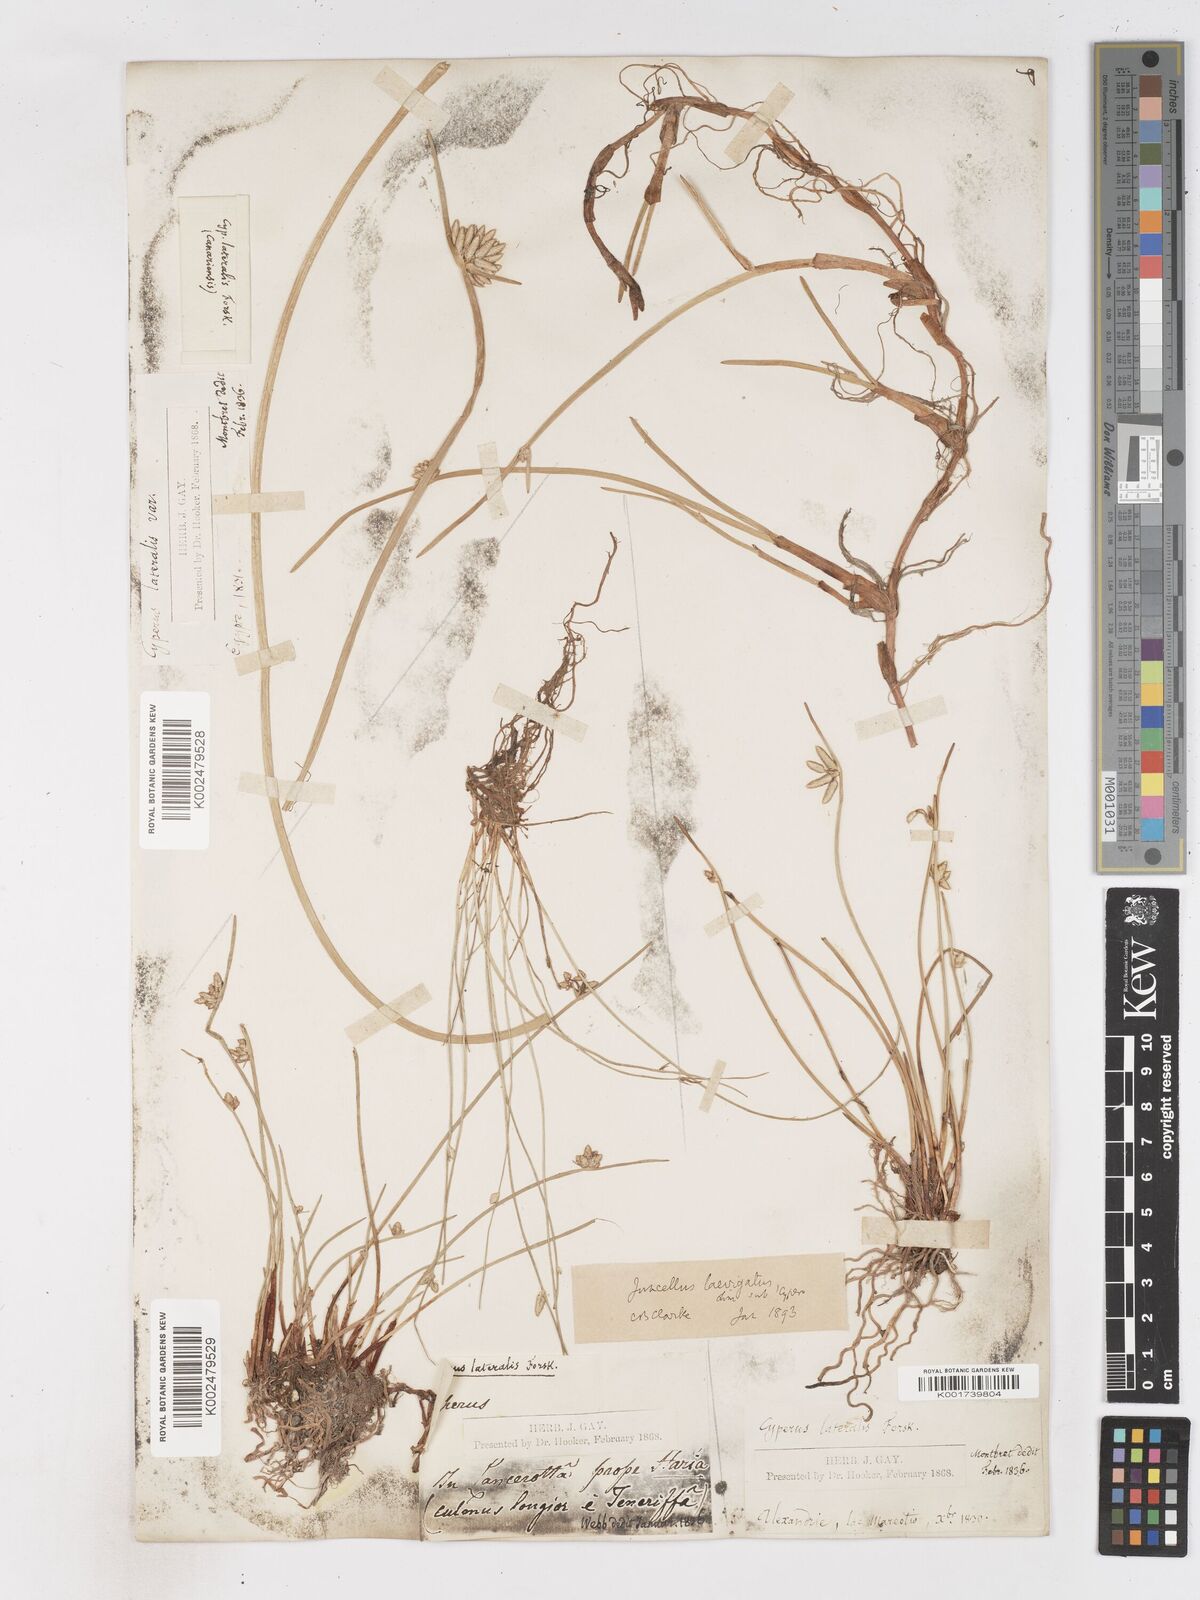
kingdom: Plantae
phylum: Tracheophyta
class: Liliopsida
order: Poales
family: Cyperaceae
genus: Cyperus
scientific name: Cyperus laevigatus
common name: Smooth flat sedge
